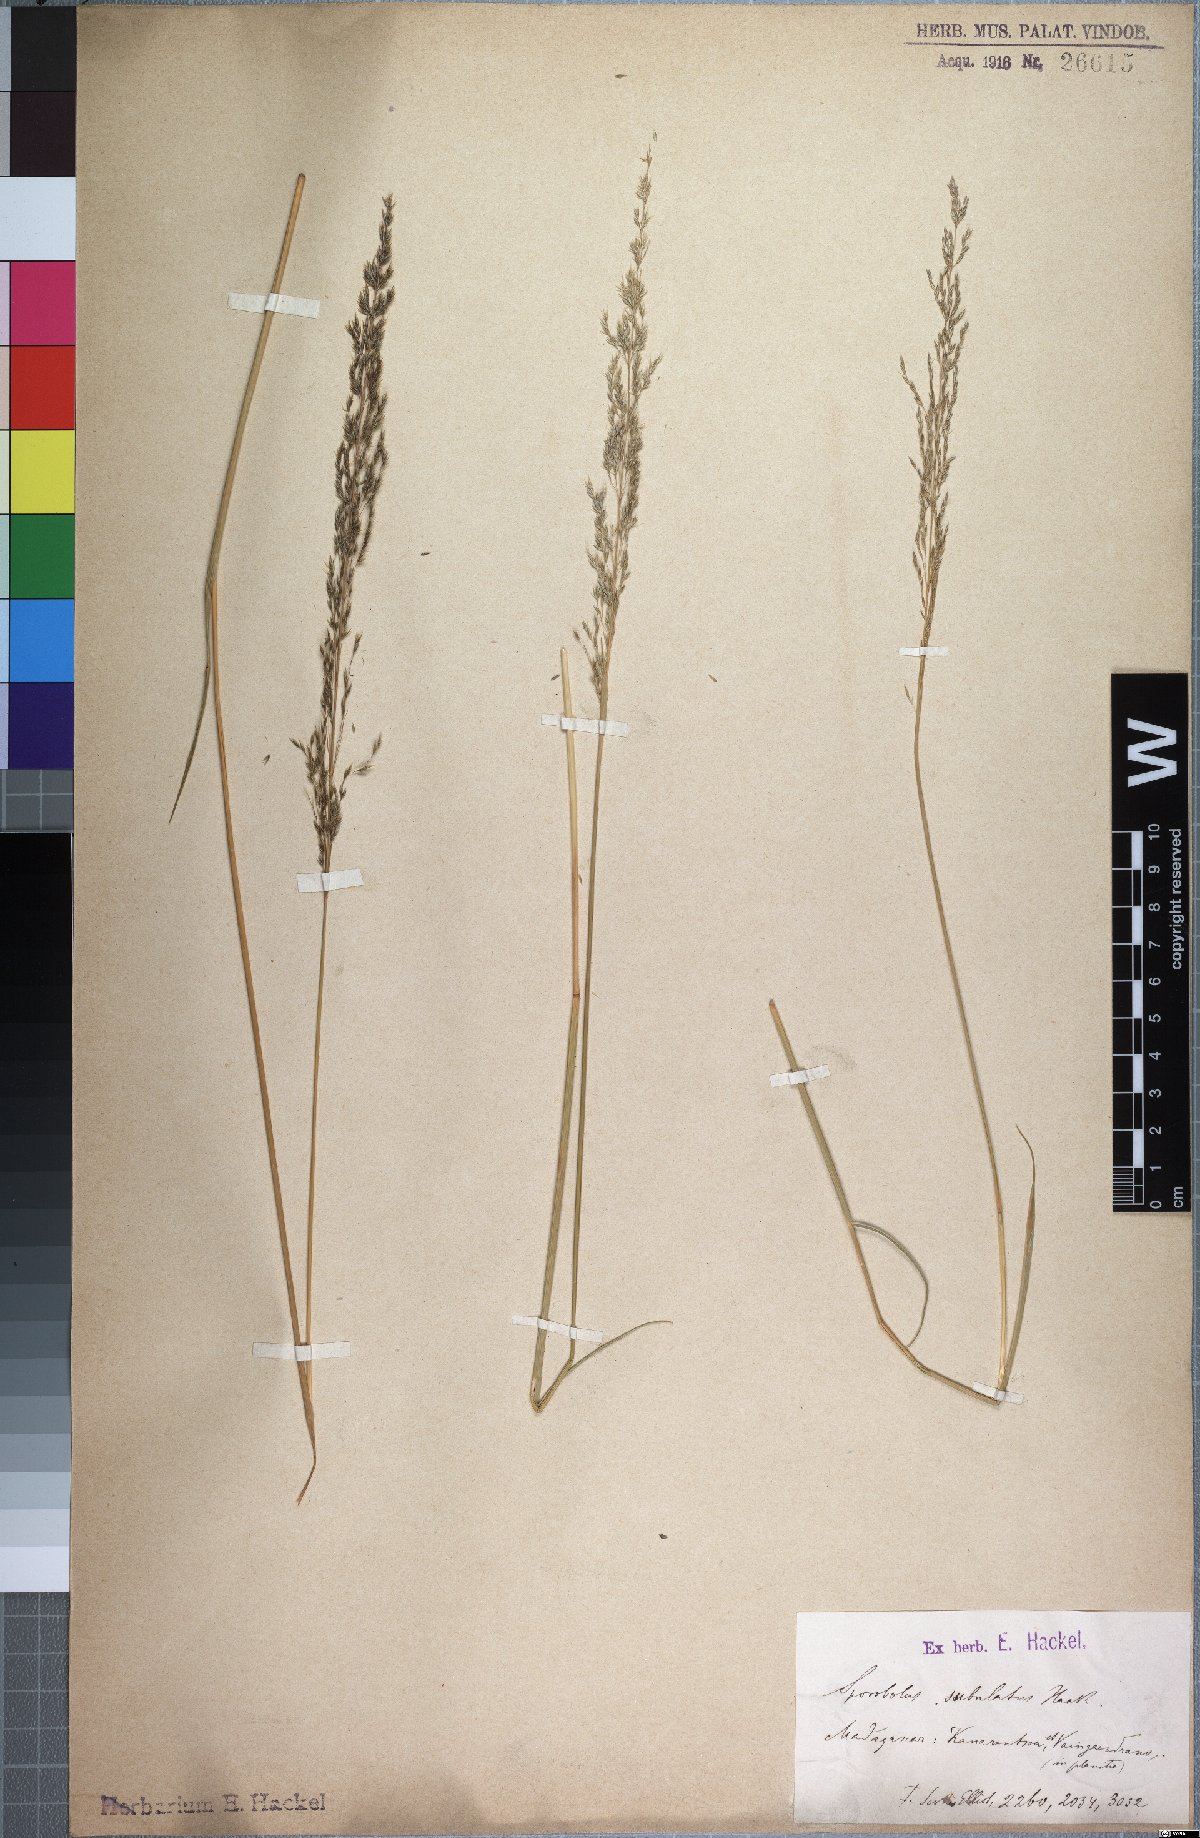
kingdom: Plantae
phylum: Tracheophyta
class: Liliopsida
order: Poales
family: Poaceae
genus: Sporobolus
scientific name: Sporobolus subulatus
